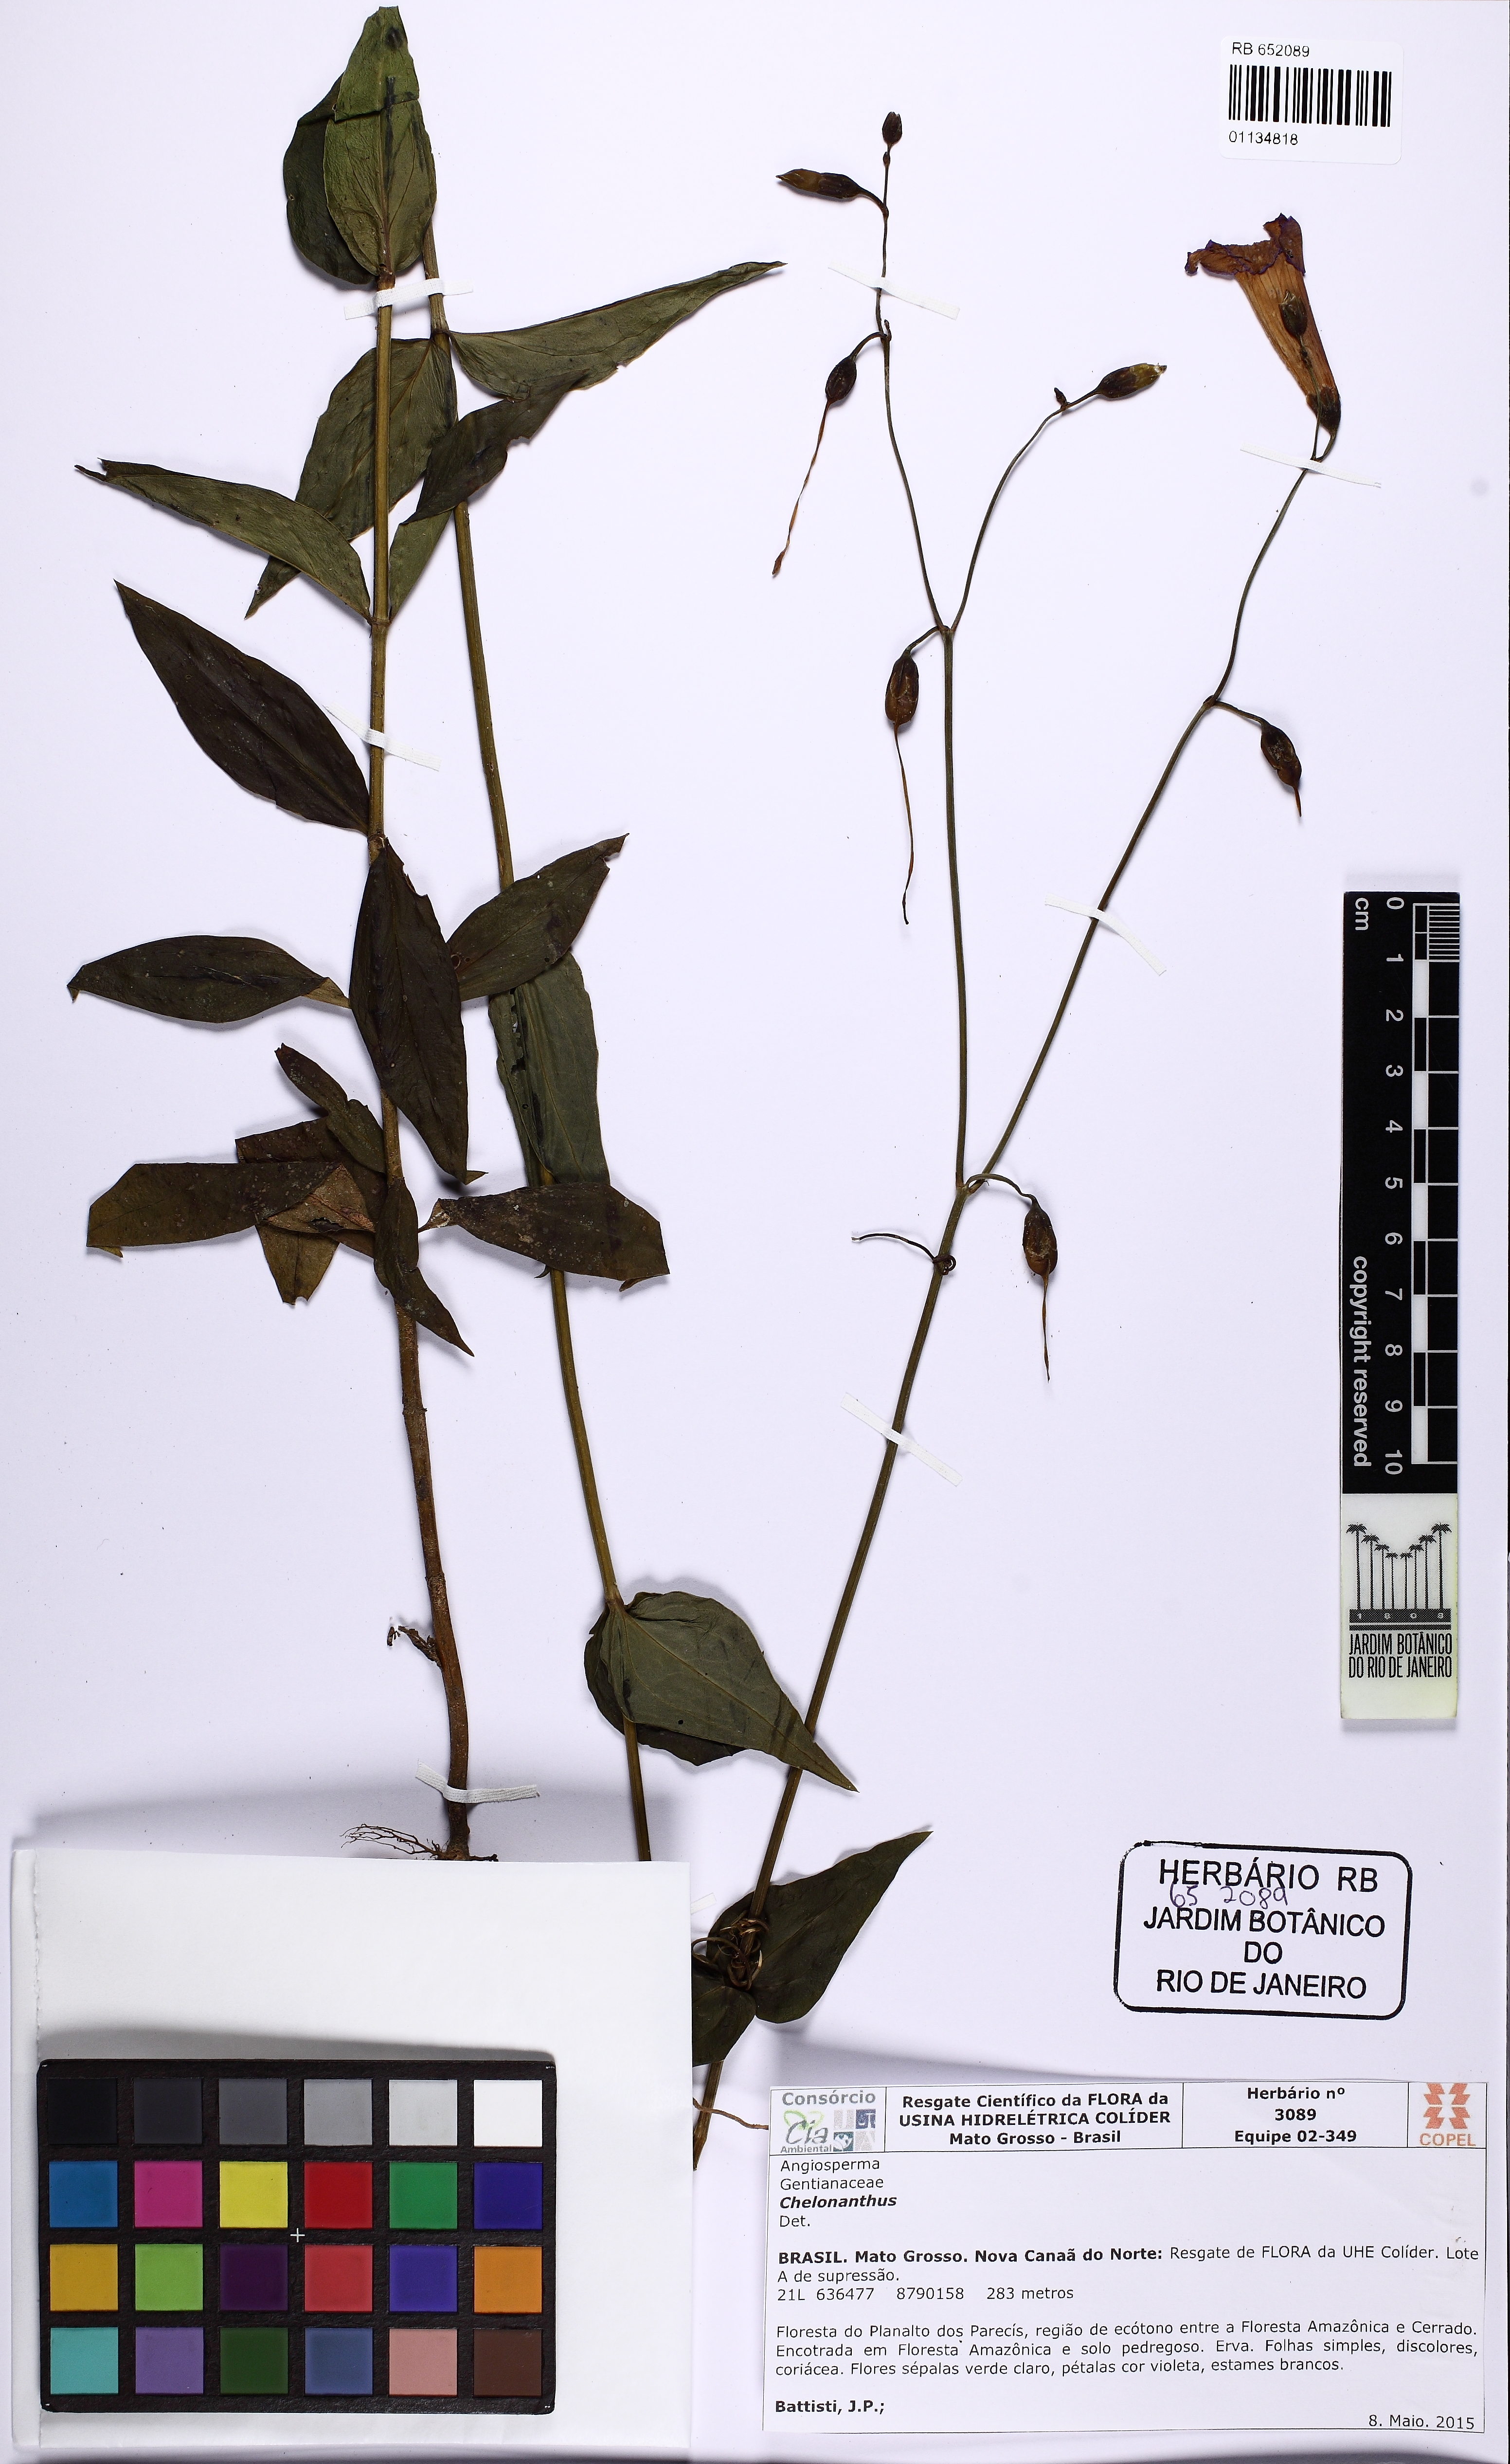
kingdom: Plantae
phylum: Tracheophyta
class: Magnoliopsida
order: Gentianales
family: Gentianaceae
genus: Chelonanthus
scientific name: Chelonanthus
